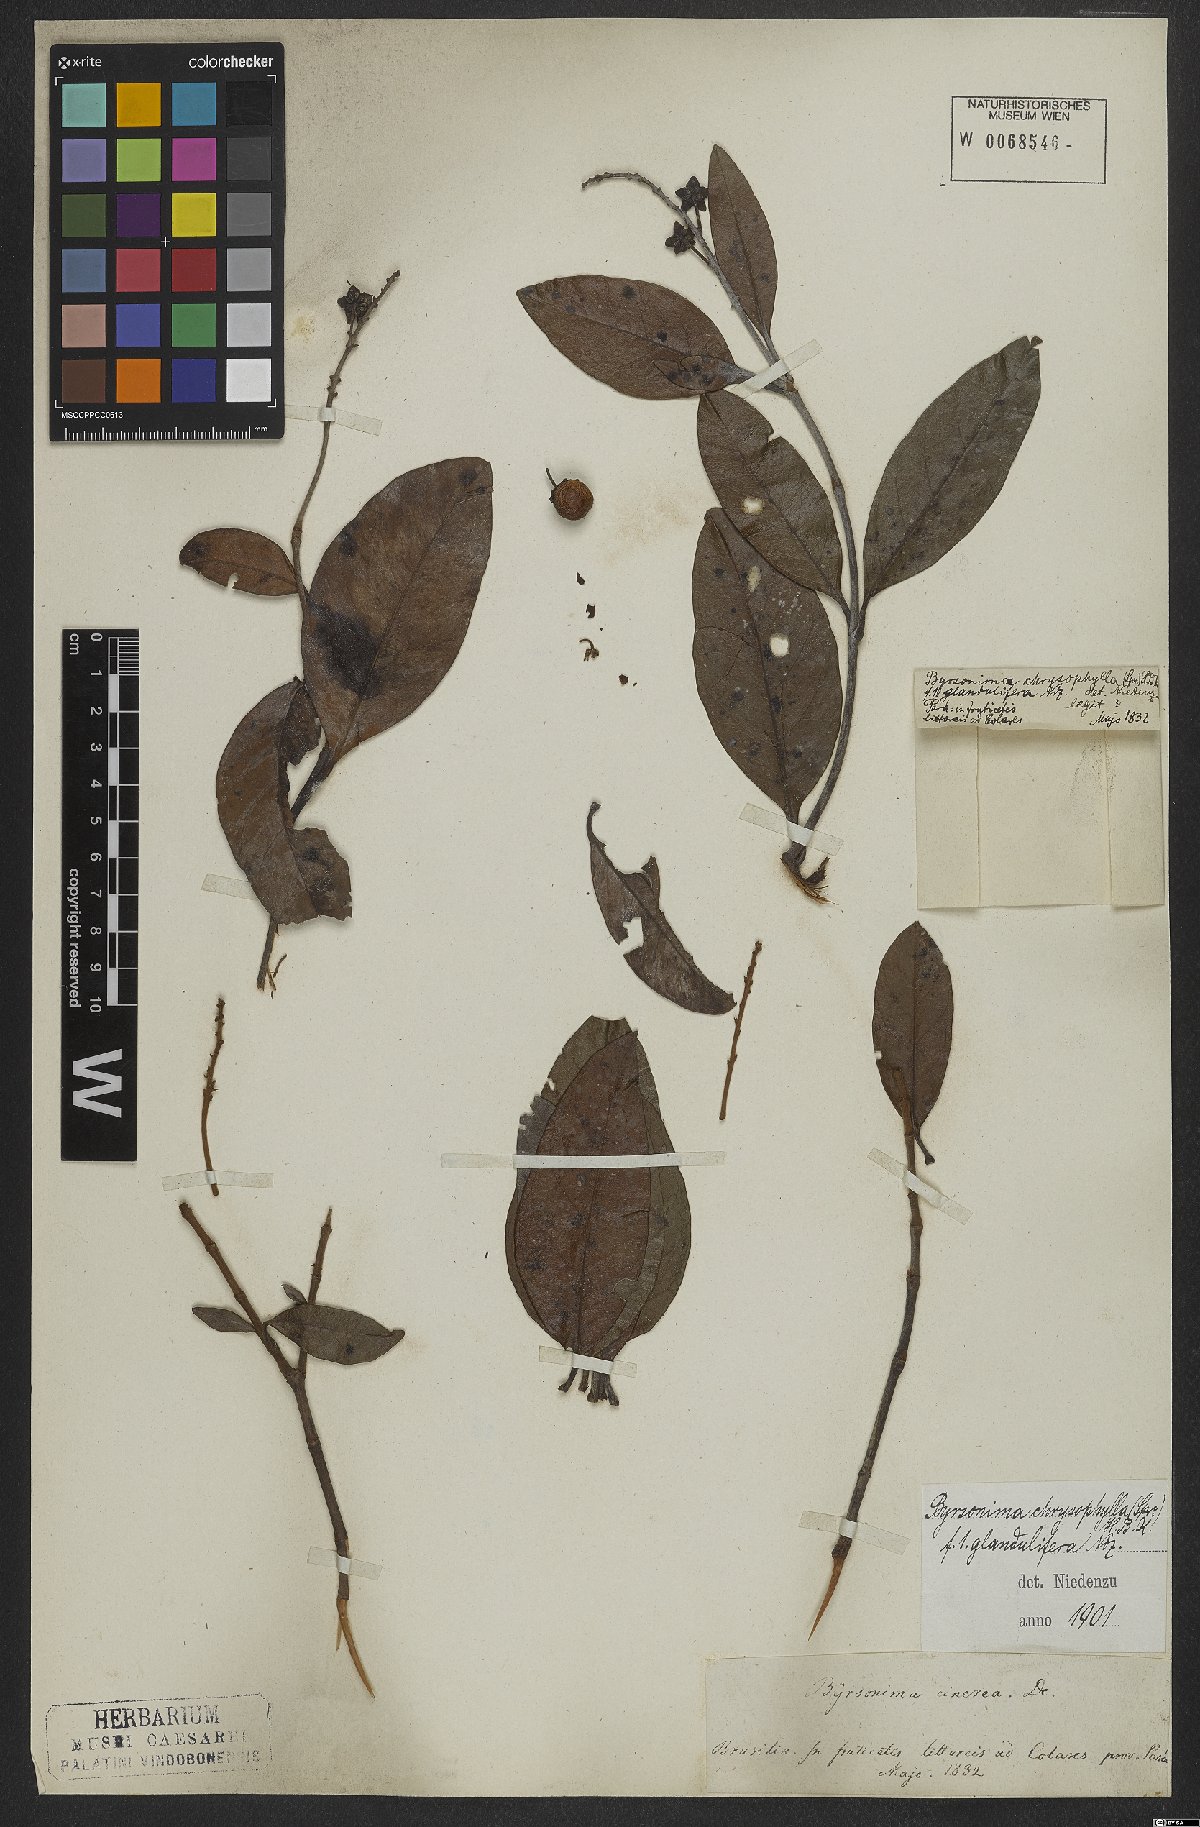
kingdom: Plantae
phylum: Tracheophyta
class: Magnoliopsida
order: Malpighiales
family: Malpighiaceae
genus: Byrsonima
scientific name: Byrsonima chrysophylla
